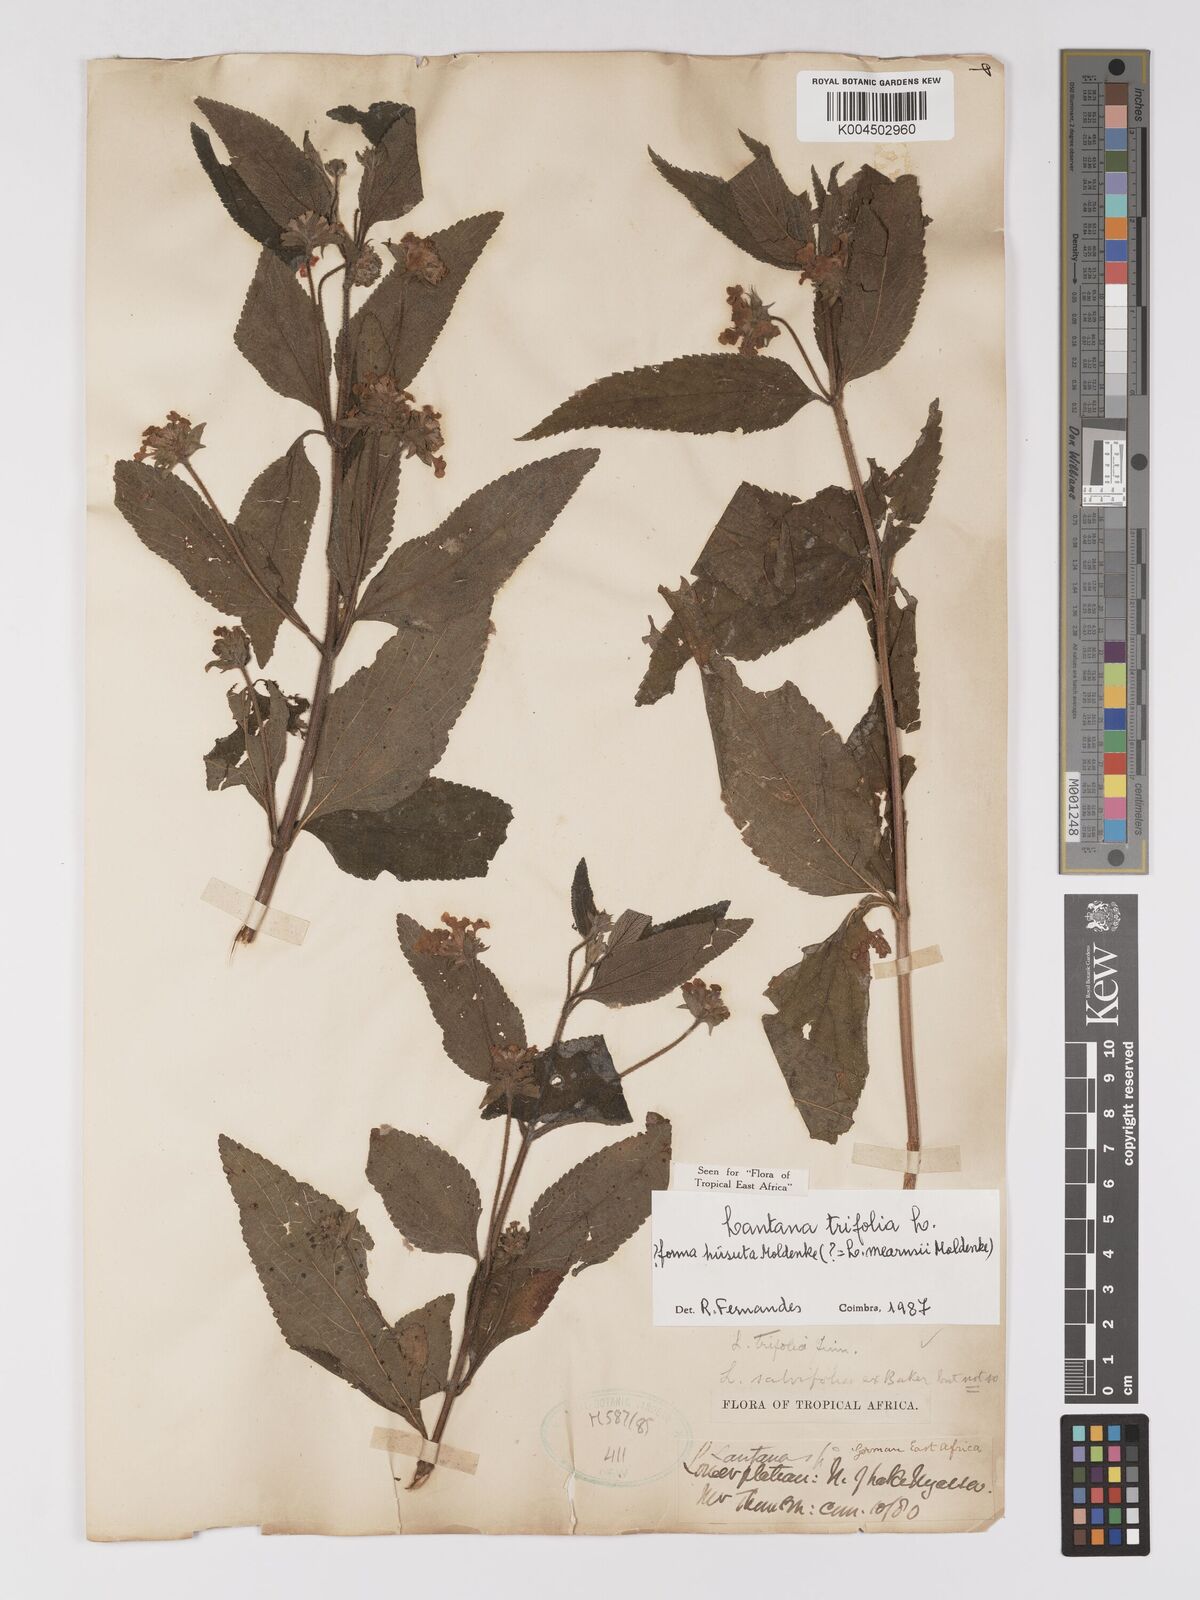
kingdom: Plantae
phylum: Tracheophyta
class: Magnoliopsida
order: Lamiales
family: Verbenaceae
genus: Lantana
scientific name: Lantana trifolia
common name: Sweet-sage
